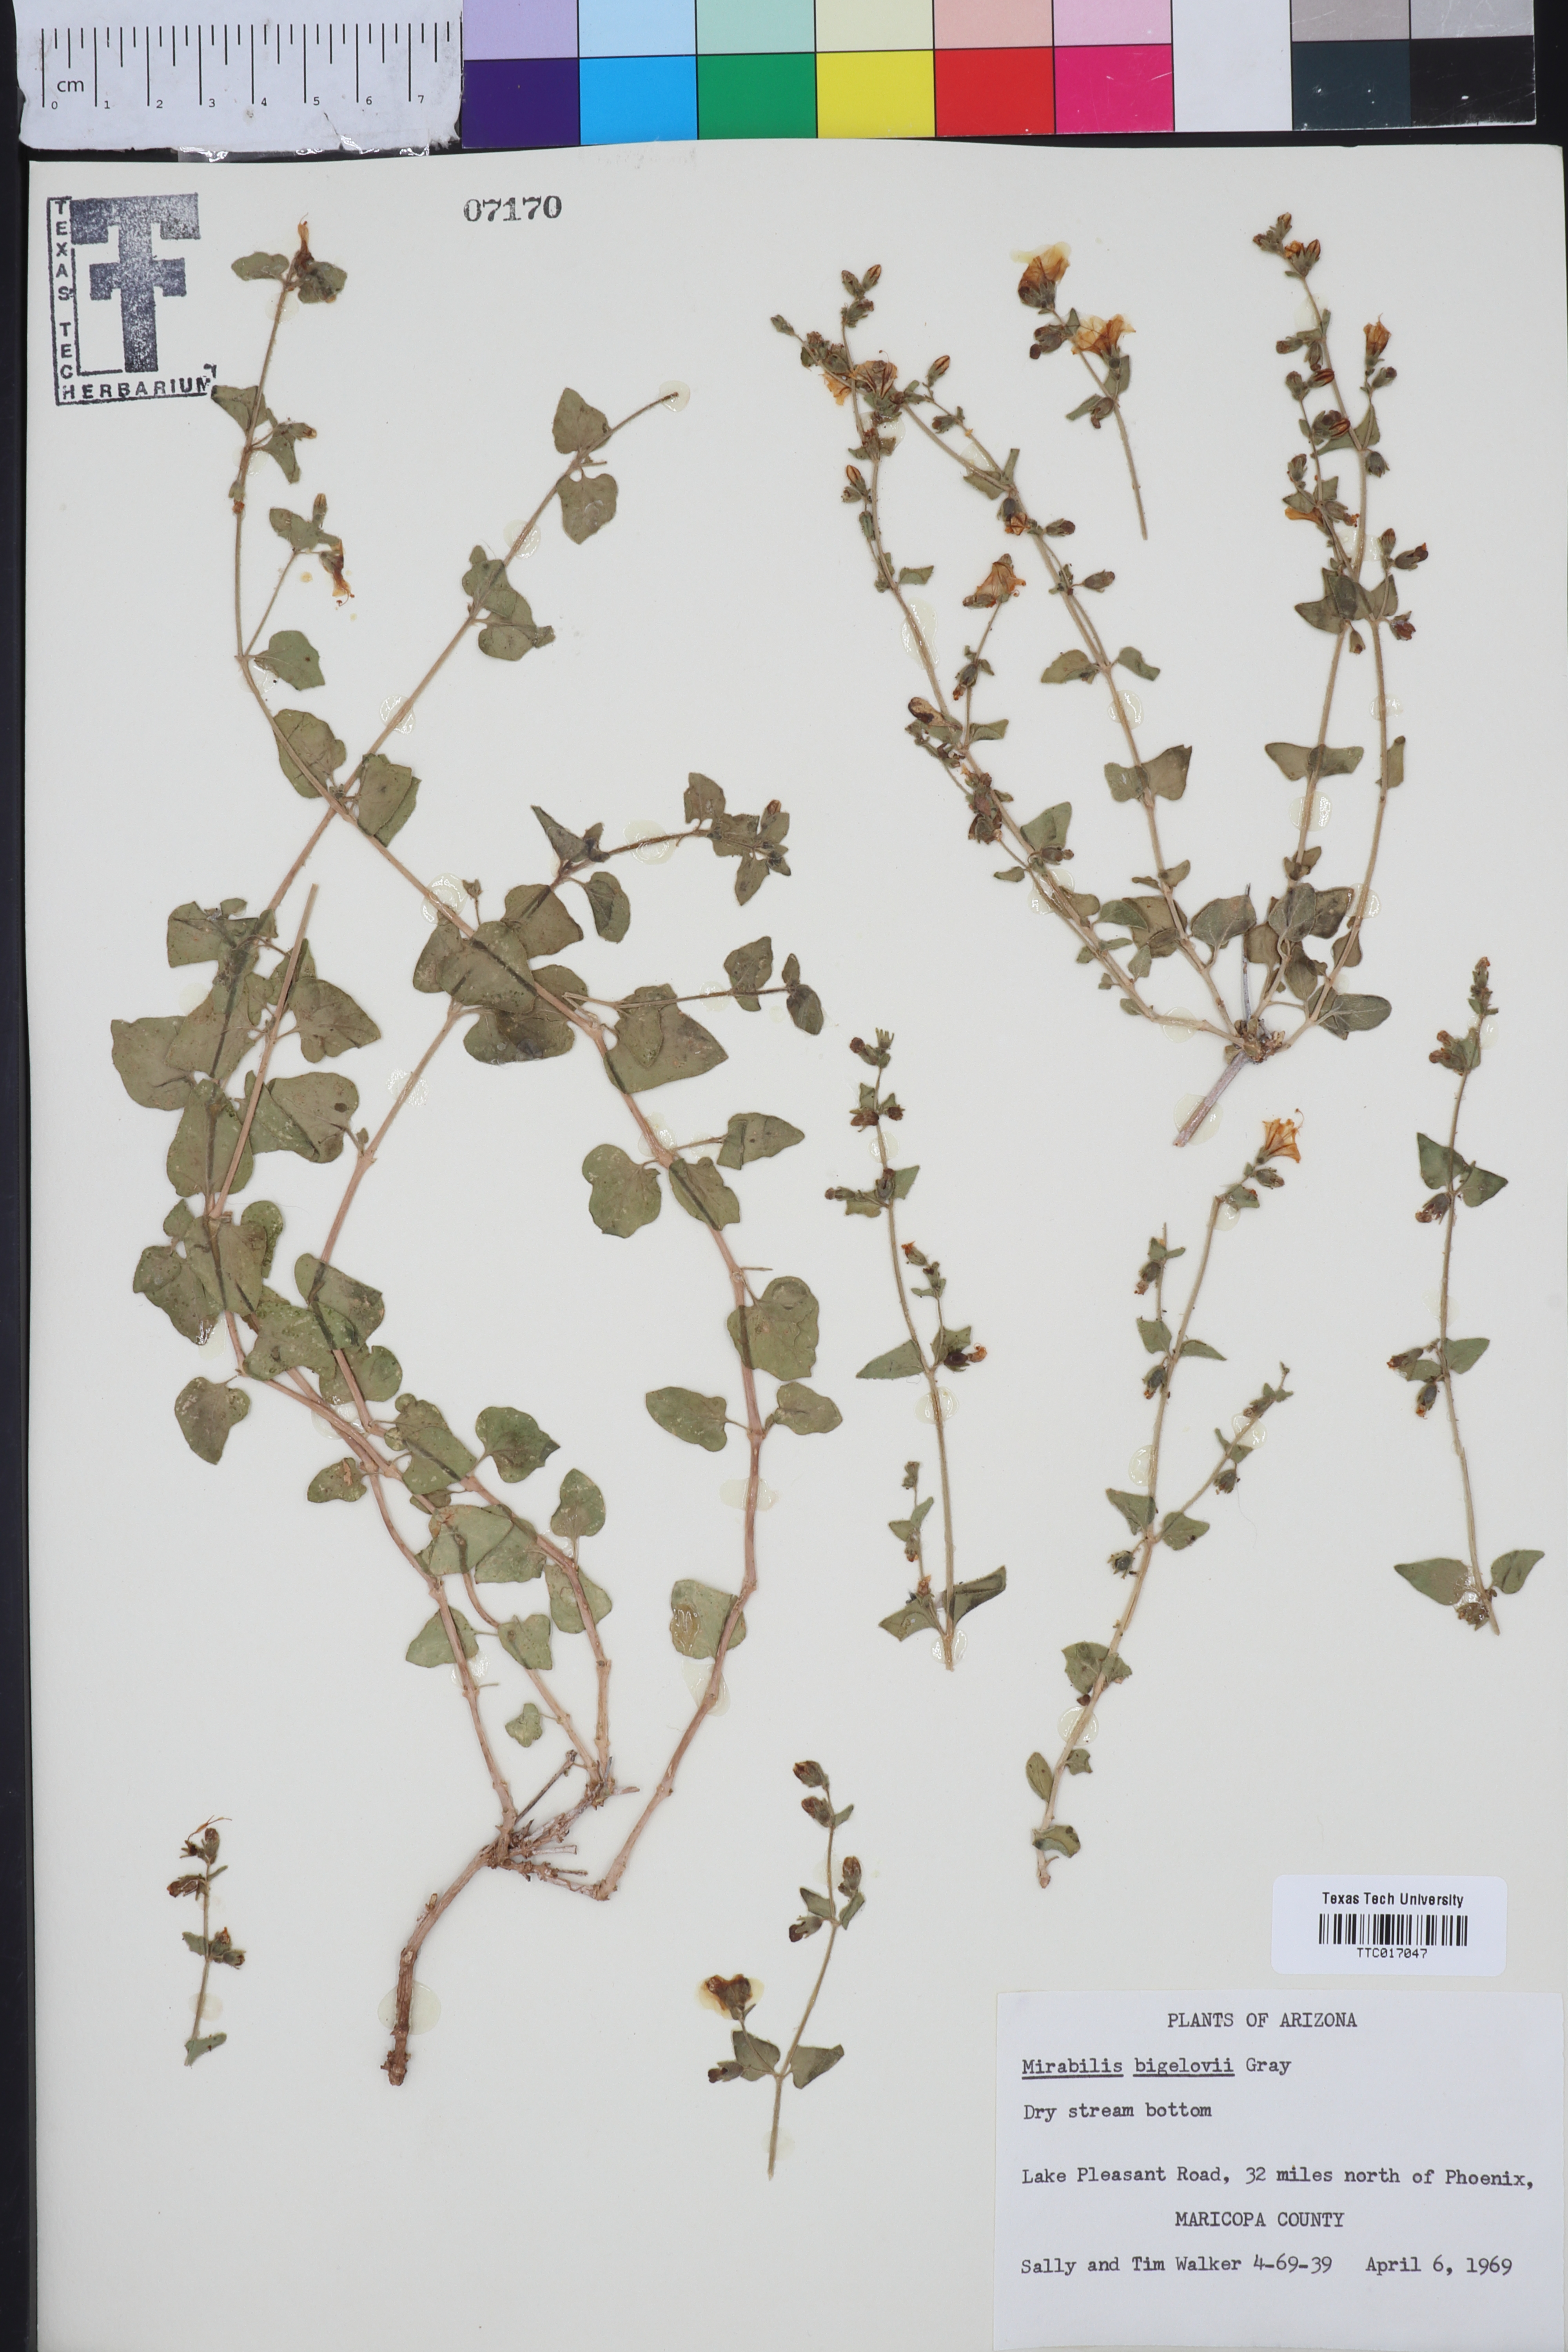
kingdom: Plantae
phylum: Tracheophyta
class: Magnoliopsida
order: Caryophyllales
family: Nyctaginaceae
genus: Mirabilis
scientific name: Mirabilis laevis
